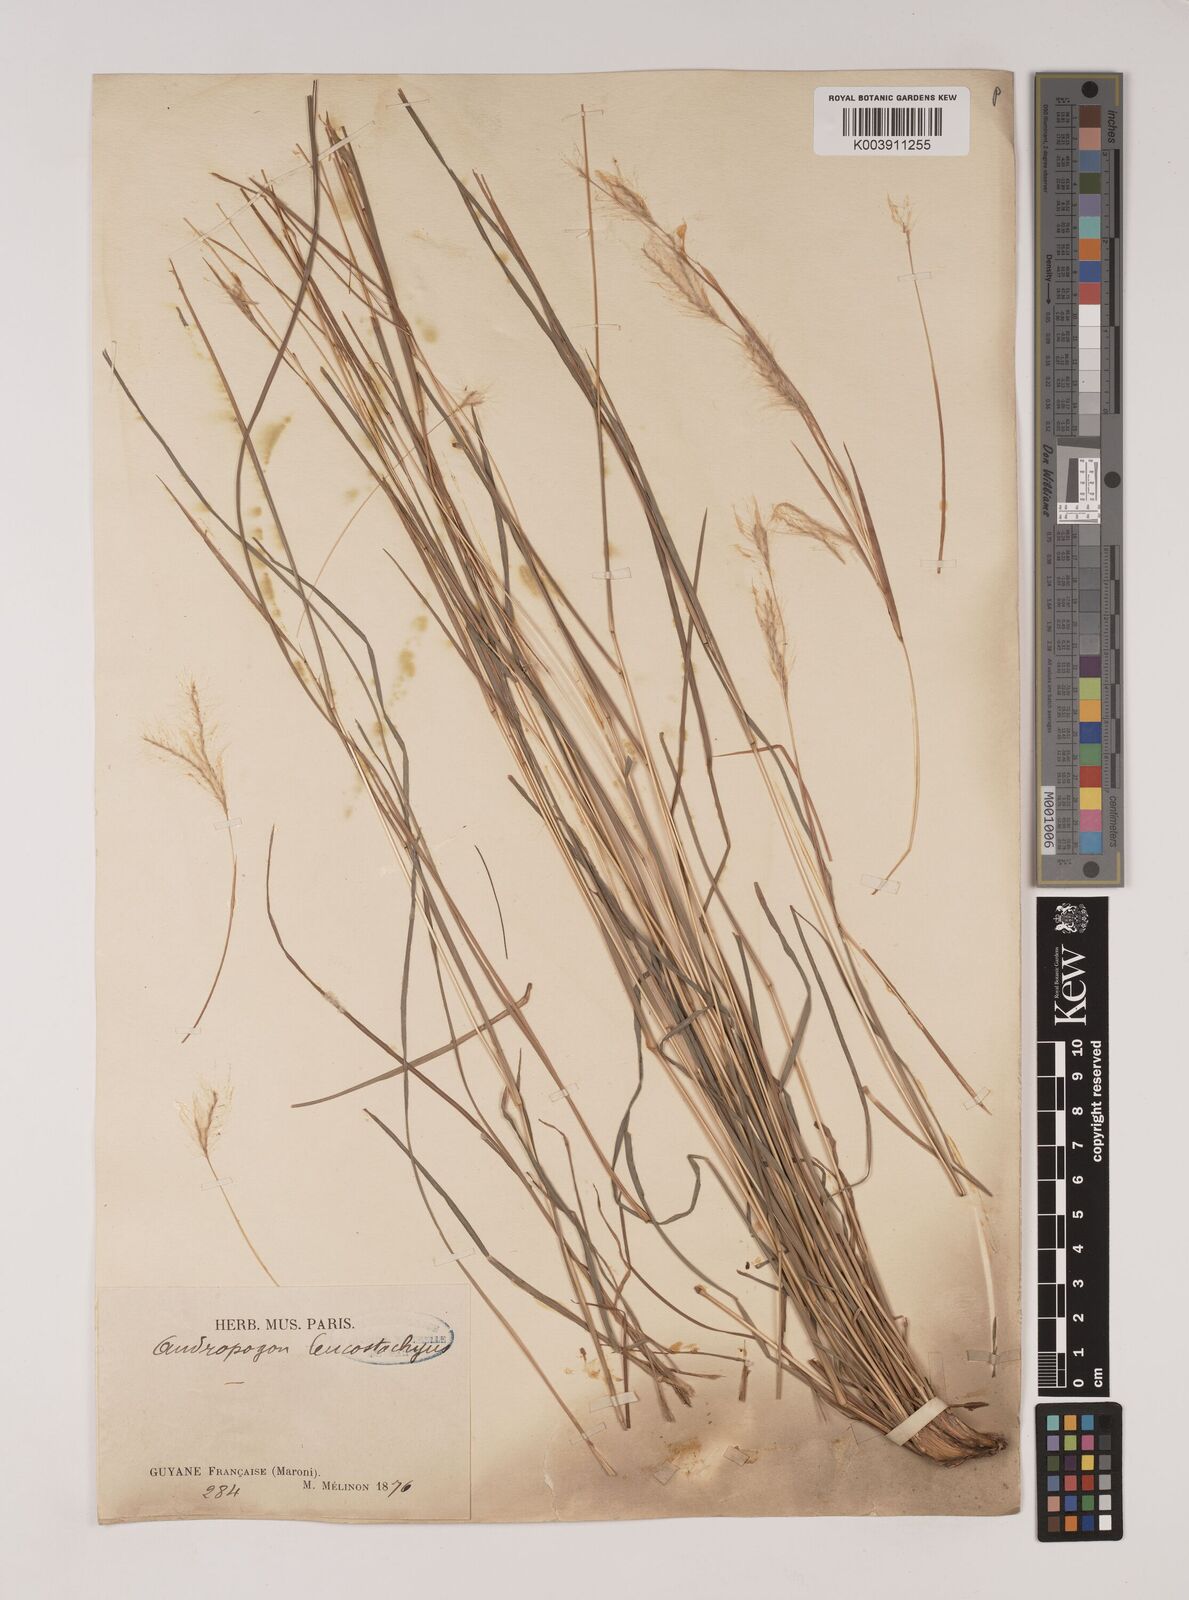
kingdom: Plantae
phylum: Tracheophyta
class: Liliopsida
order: Poales
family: Poaceae
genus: Andropogon
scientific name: Andropogon leucostachyus
